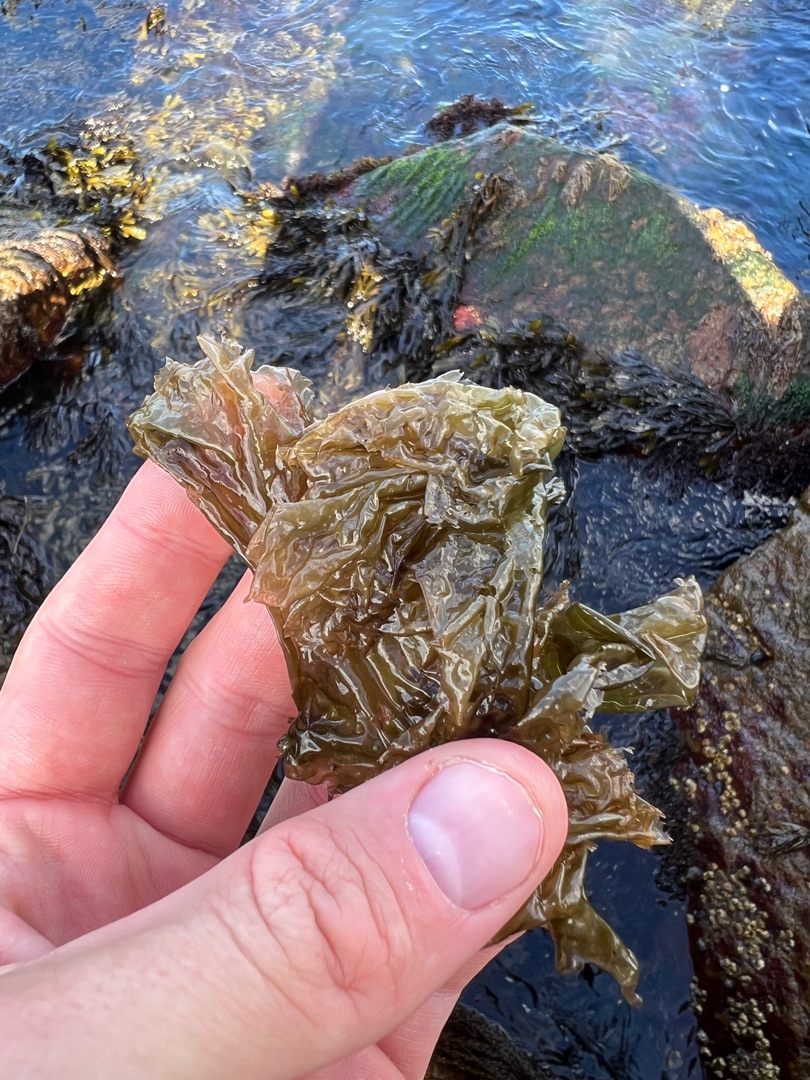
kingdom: Plantae
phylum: Rhodophyta
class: Bangiophyceae
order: Bangiales
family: Bangiaceae
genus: Porphyra
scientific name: Porphyra umbilicalis
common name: Navle-purpurhinde
